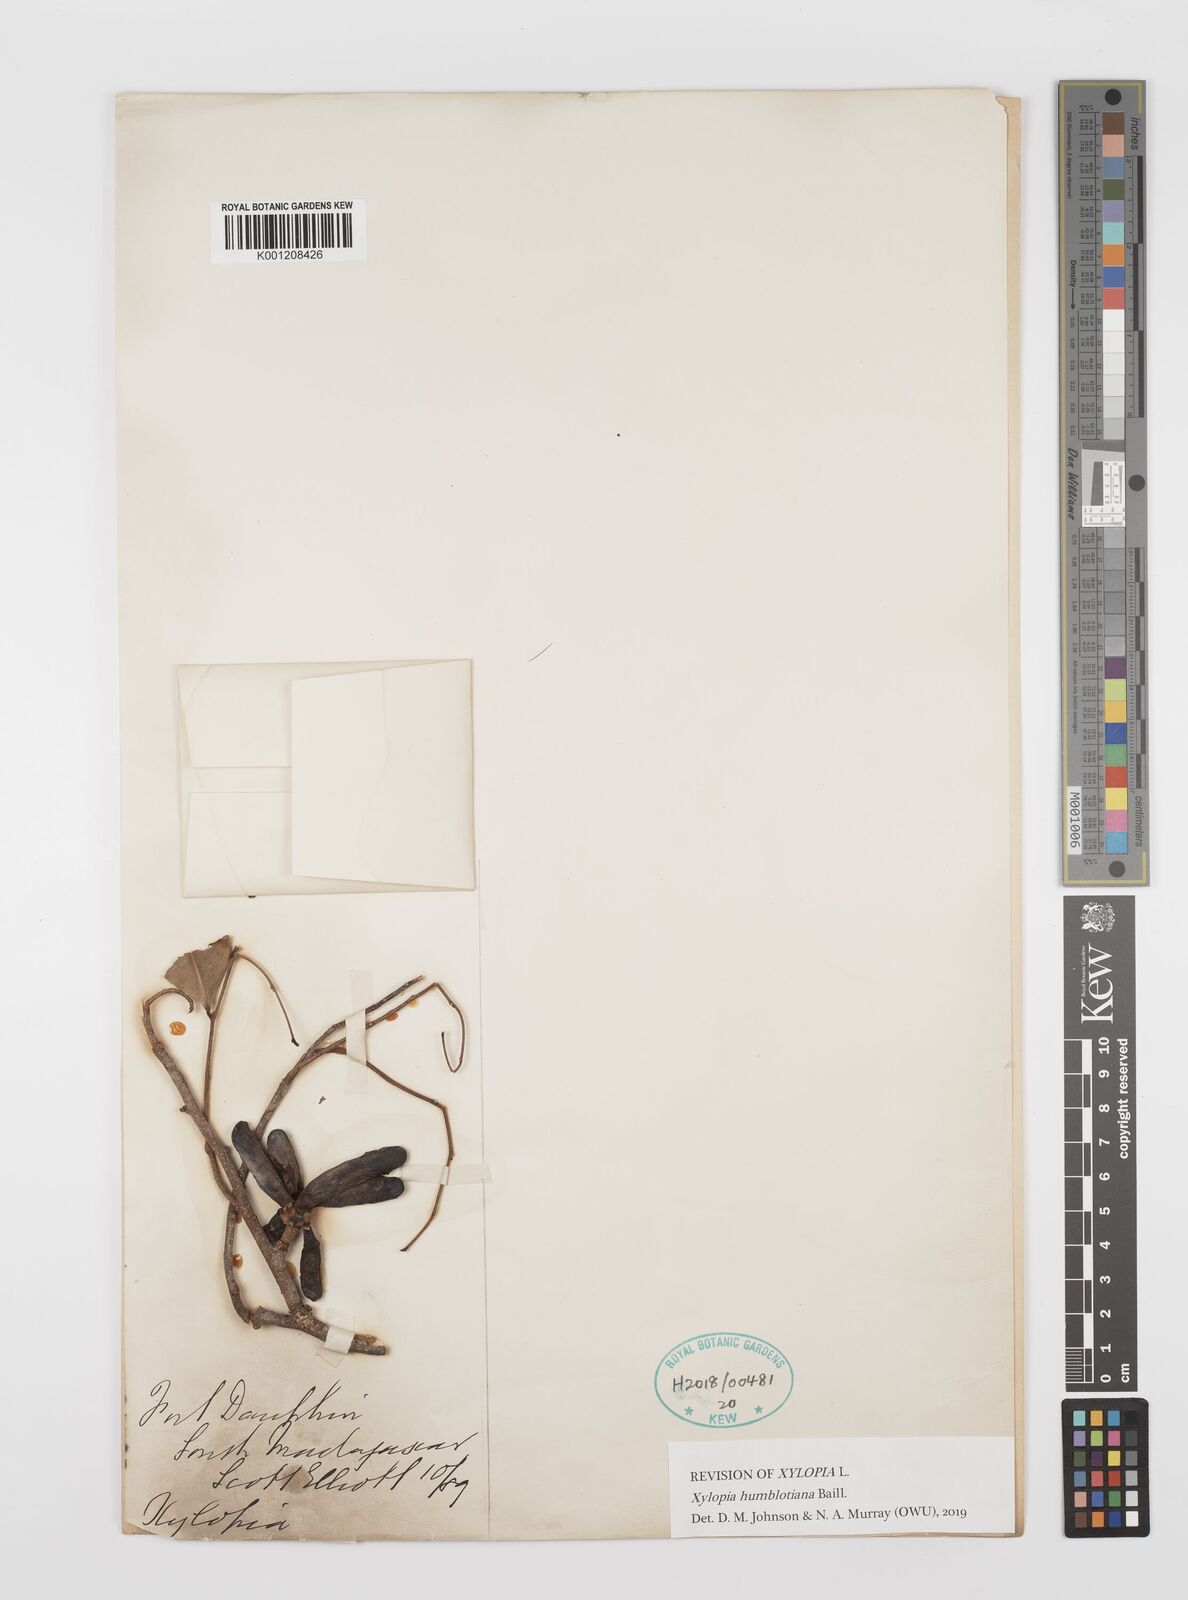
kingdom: Plantae
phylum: Tracheophyta
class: Magnoliopsida
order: Magnoliales
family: Annonaceae
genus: Xylopia
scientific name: Xylopia
